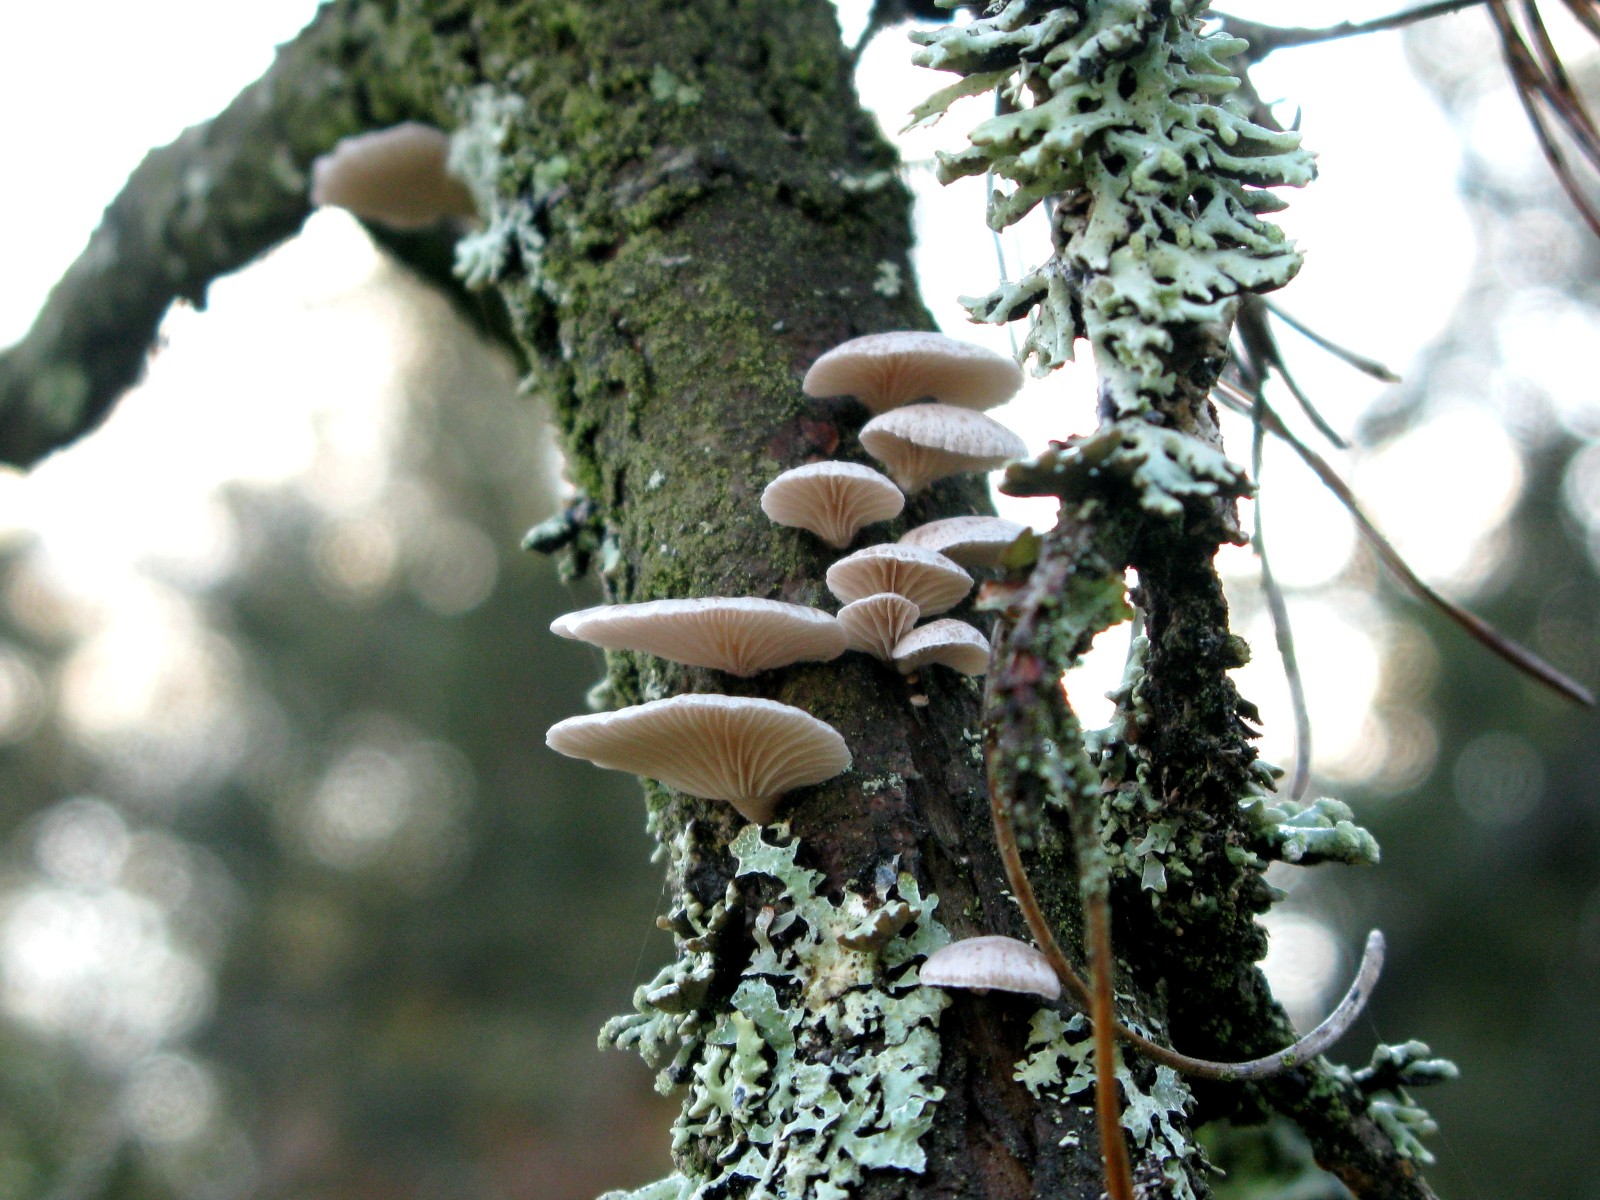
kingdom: Fungi
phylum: Basidiomycota
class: Agaricomycetes
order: Agaricales
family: Mycenaceae
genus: Panellus
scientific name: Panellus mitis
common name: mild epaulethat
